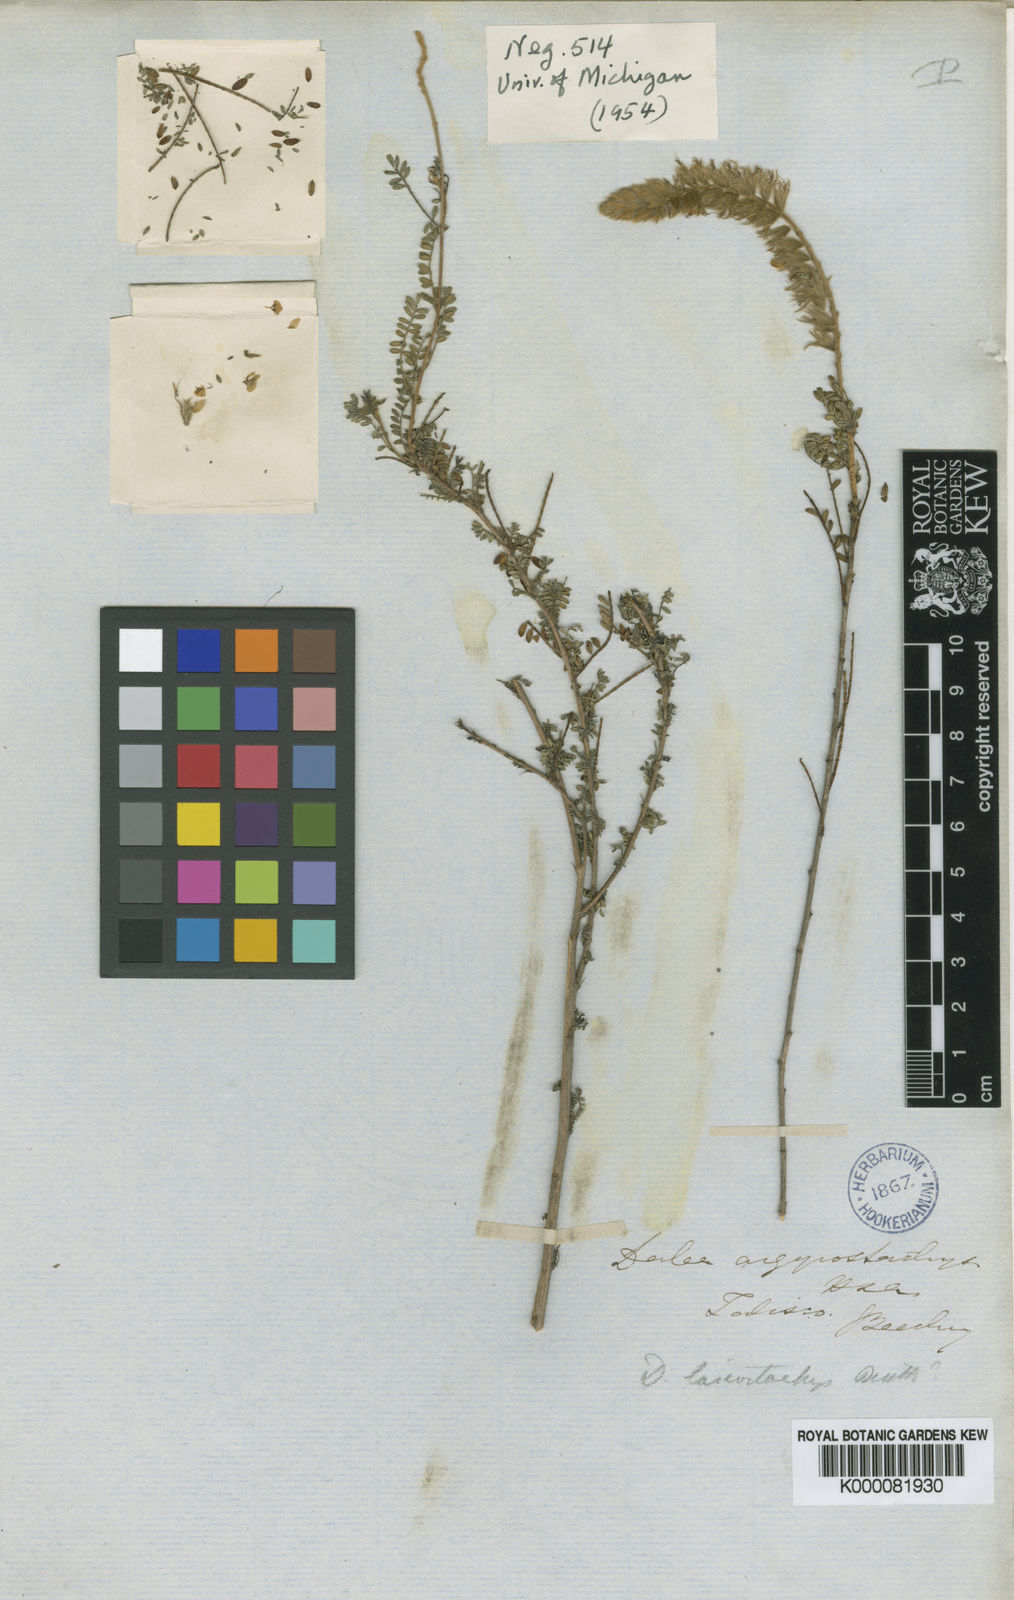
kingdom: Plantae
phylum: Tracheophyta
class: Magnoliopsida
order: Fabales
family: Fabaceae
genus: Dalea
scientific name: Dalea versicolor
